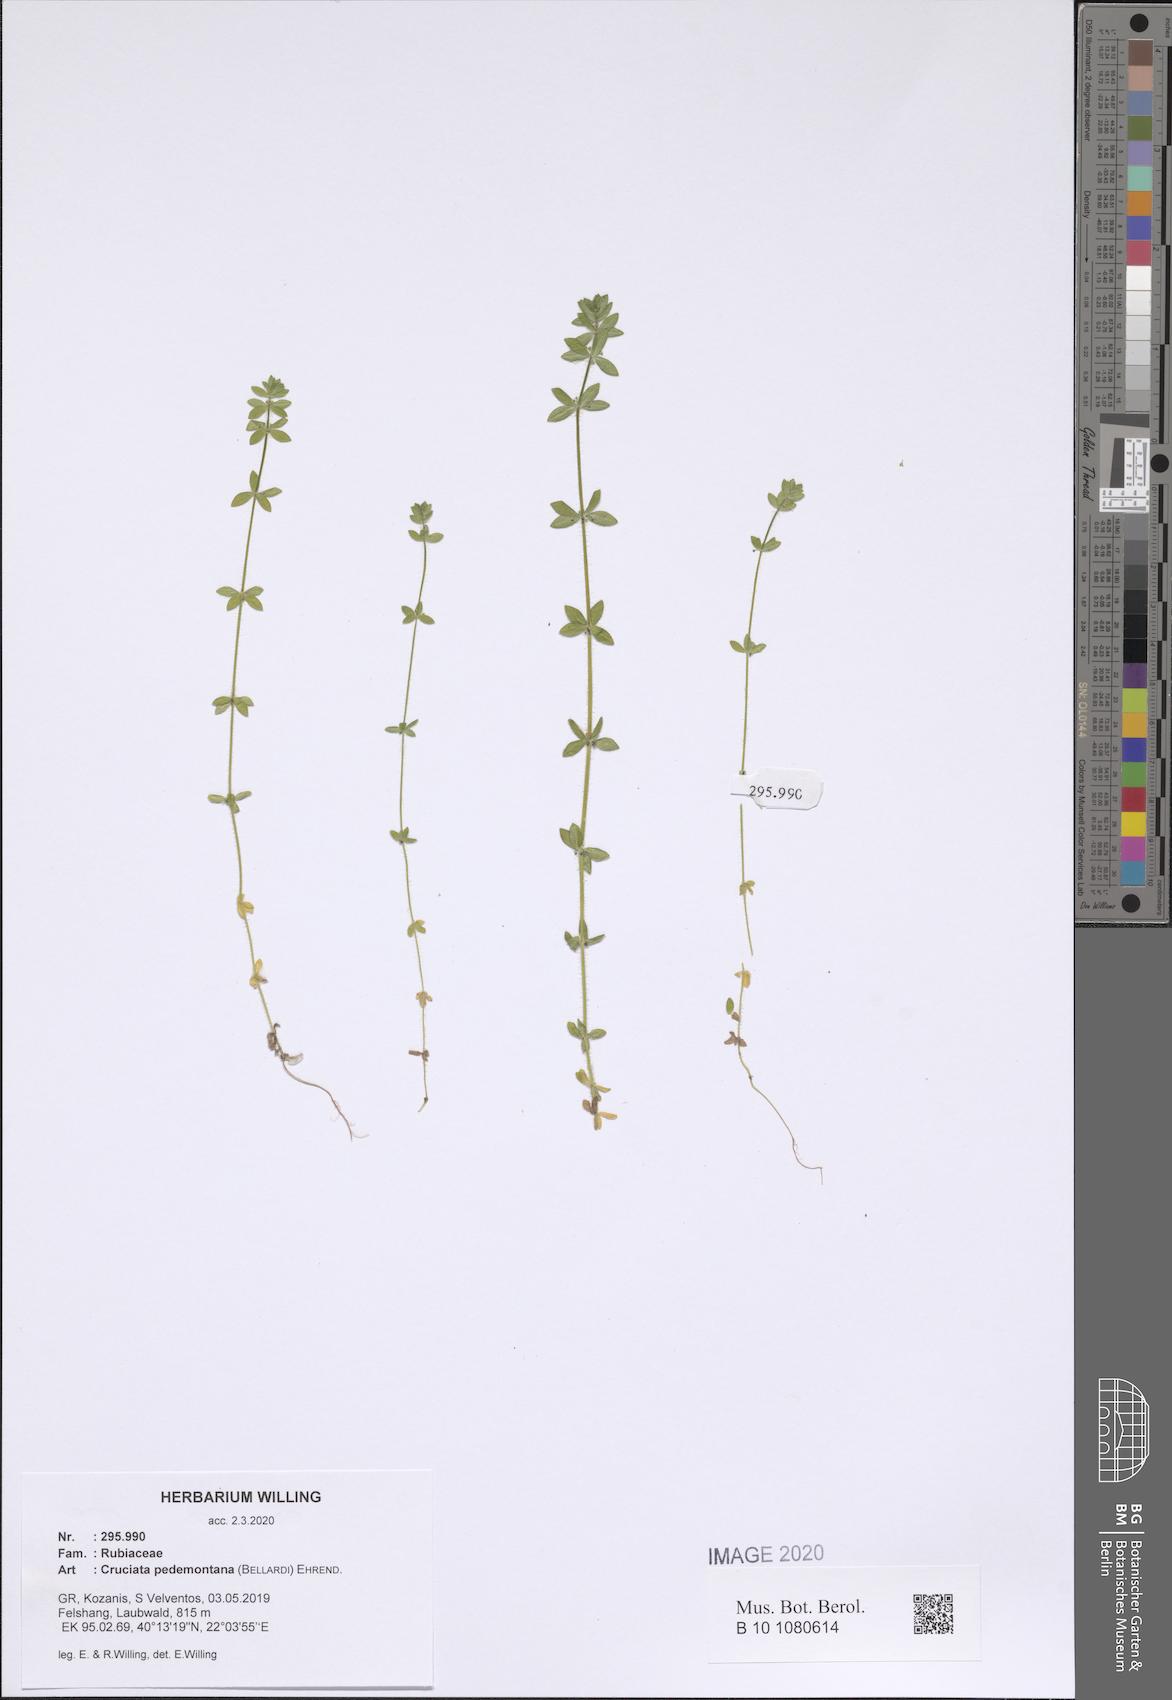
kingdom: Plantae
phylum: Tracheophyta
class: Magnoliopsida
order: Gentianales
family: Rubiaceae
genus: Cruciata
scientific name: Cruciata pedemontana
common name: Piedmont bedstraw
